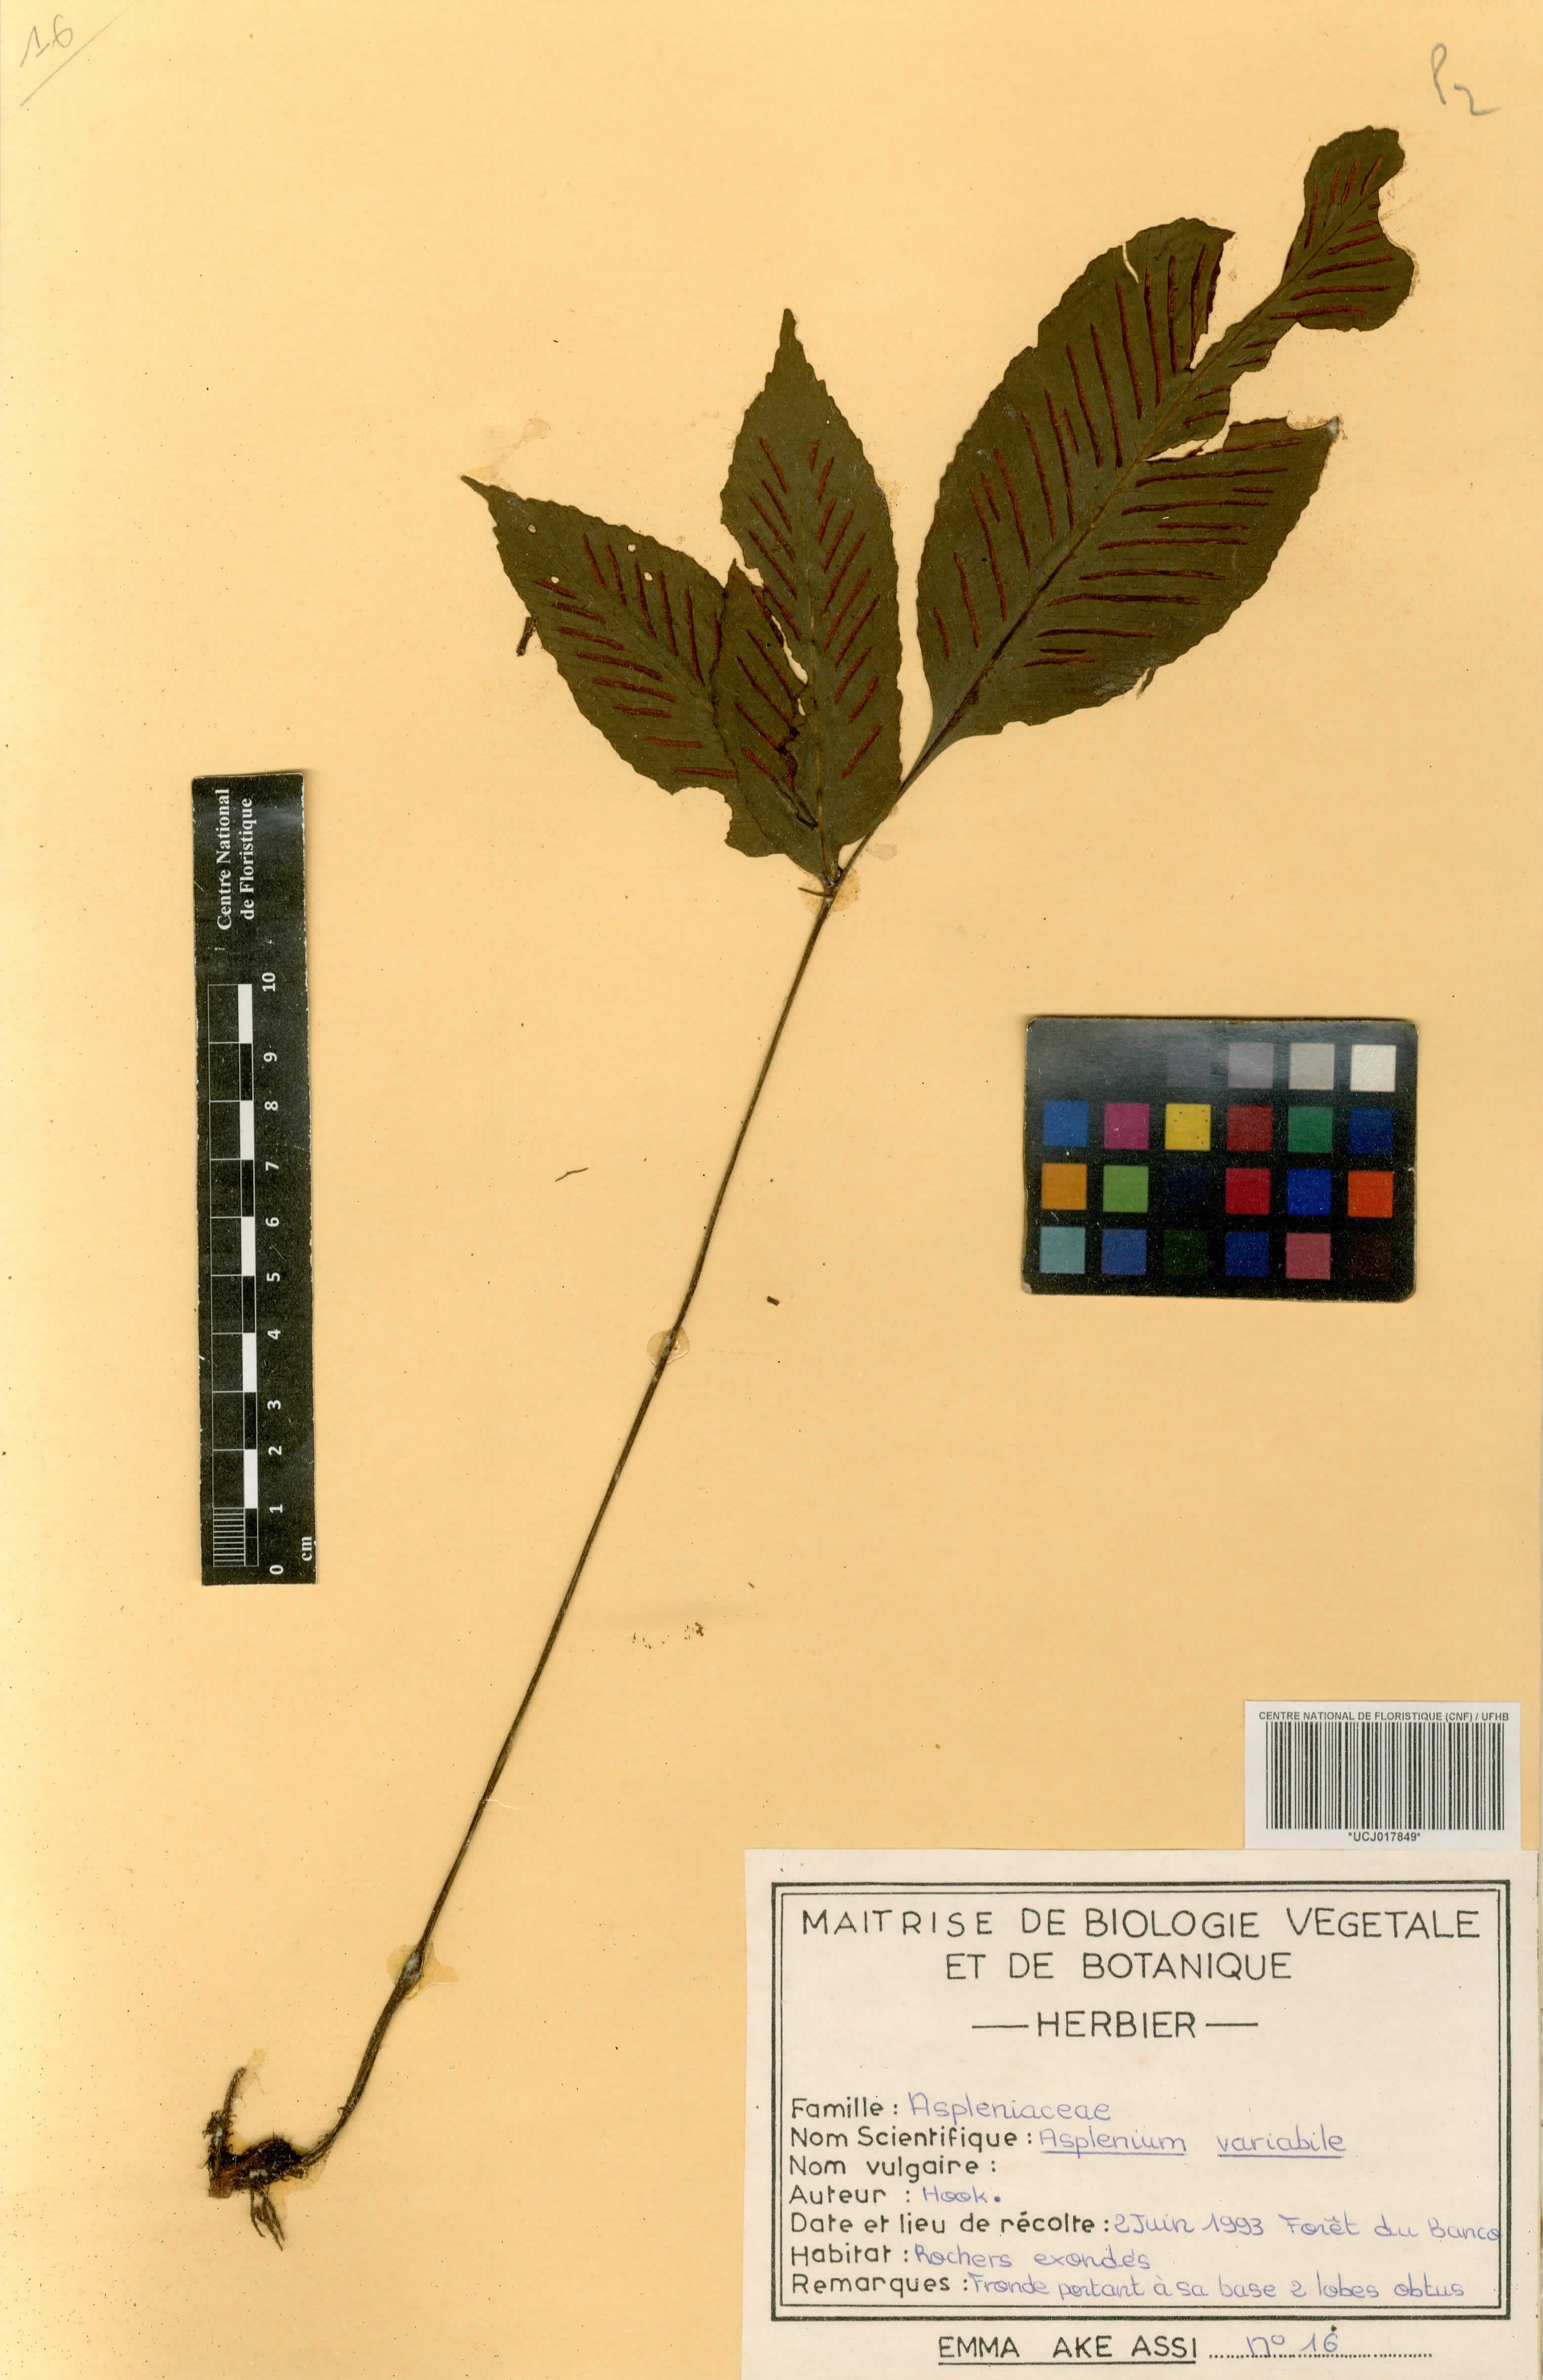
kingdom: Plantae
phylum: Tracheophyta
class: Polypodiopsida
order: Polypodiales
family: Aspleniaceae
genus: Asplenium
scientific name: Asplenium variabile
